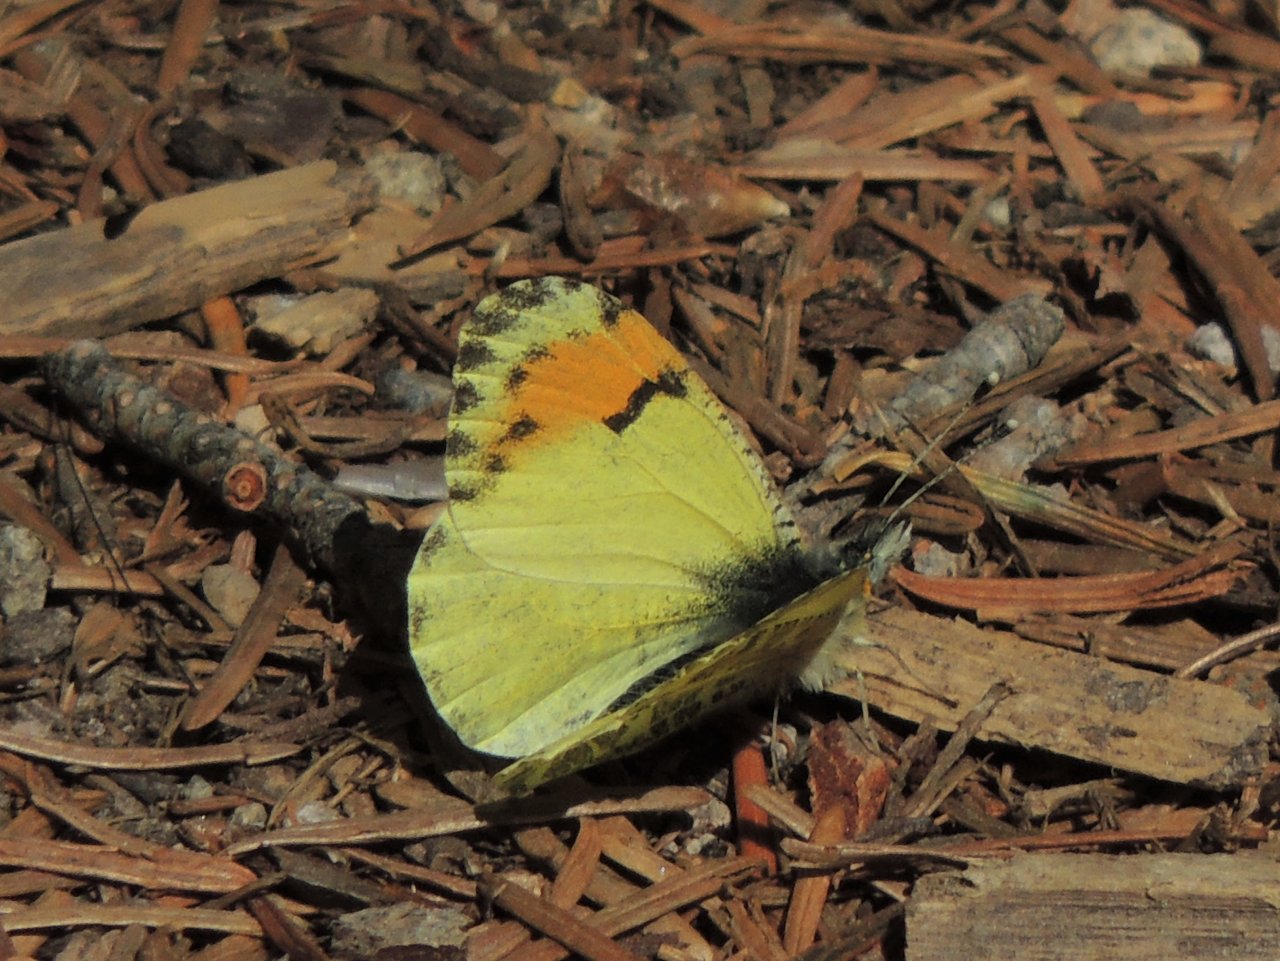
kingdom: Animalia
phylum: Arthropoda
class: Insecta
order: Lepidoptera
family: Pieridae
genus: Anthocharis
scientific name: Anthocharis sara
